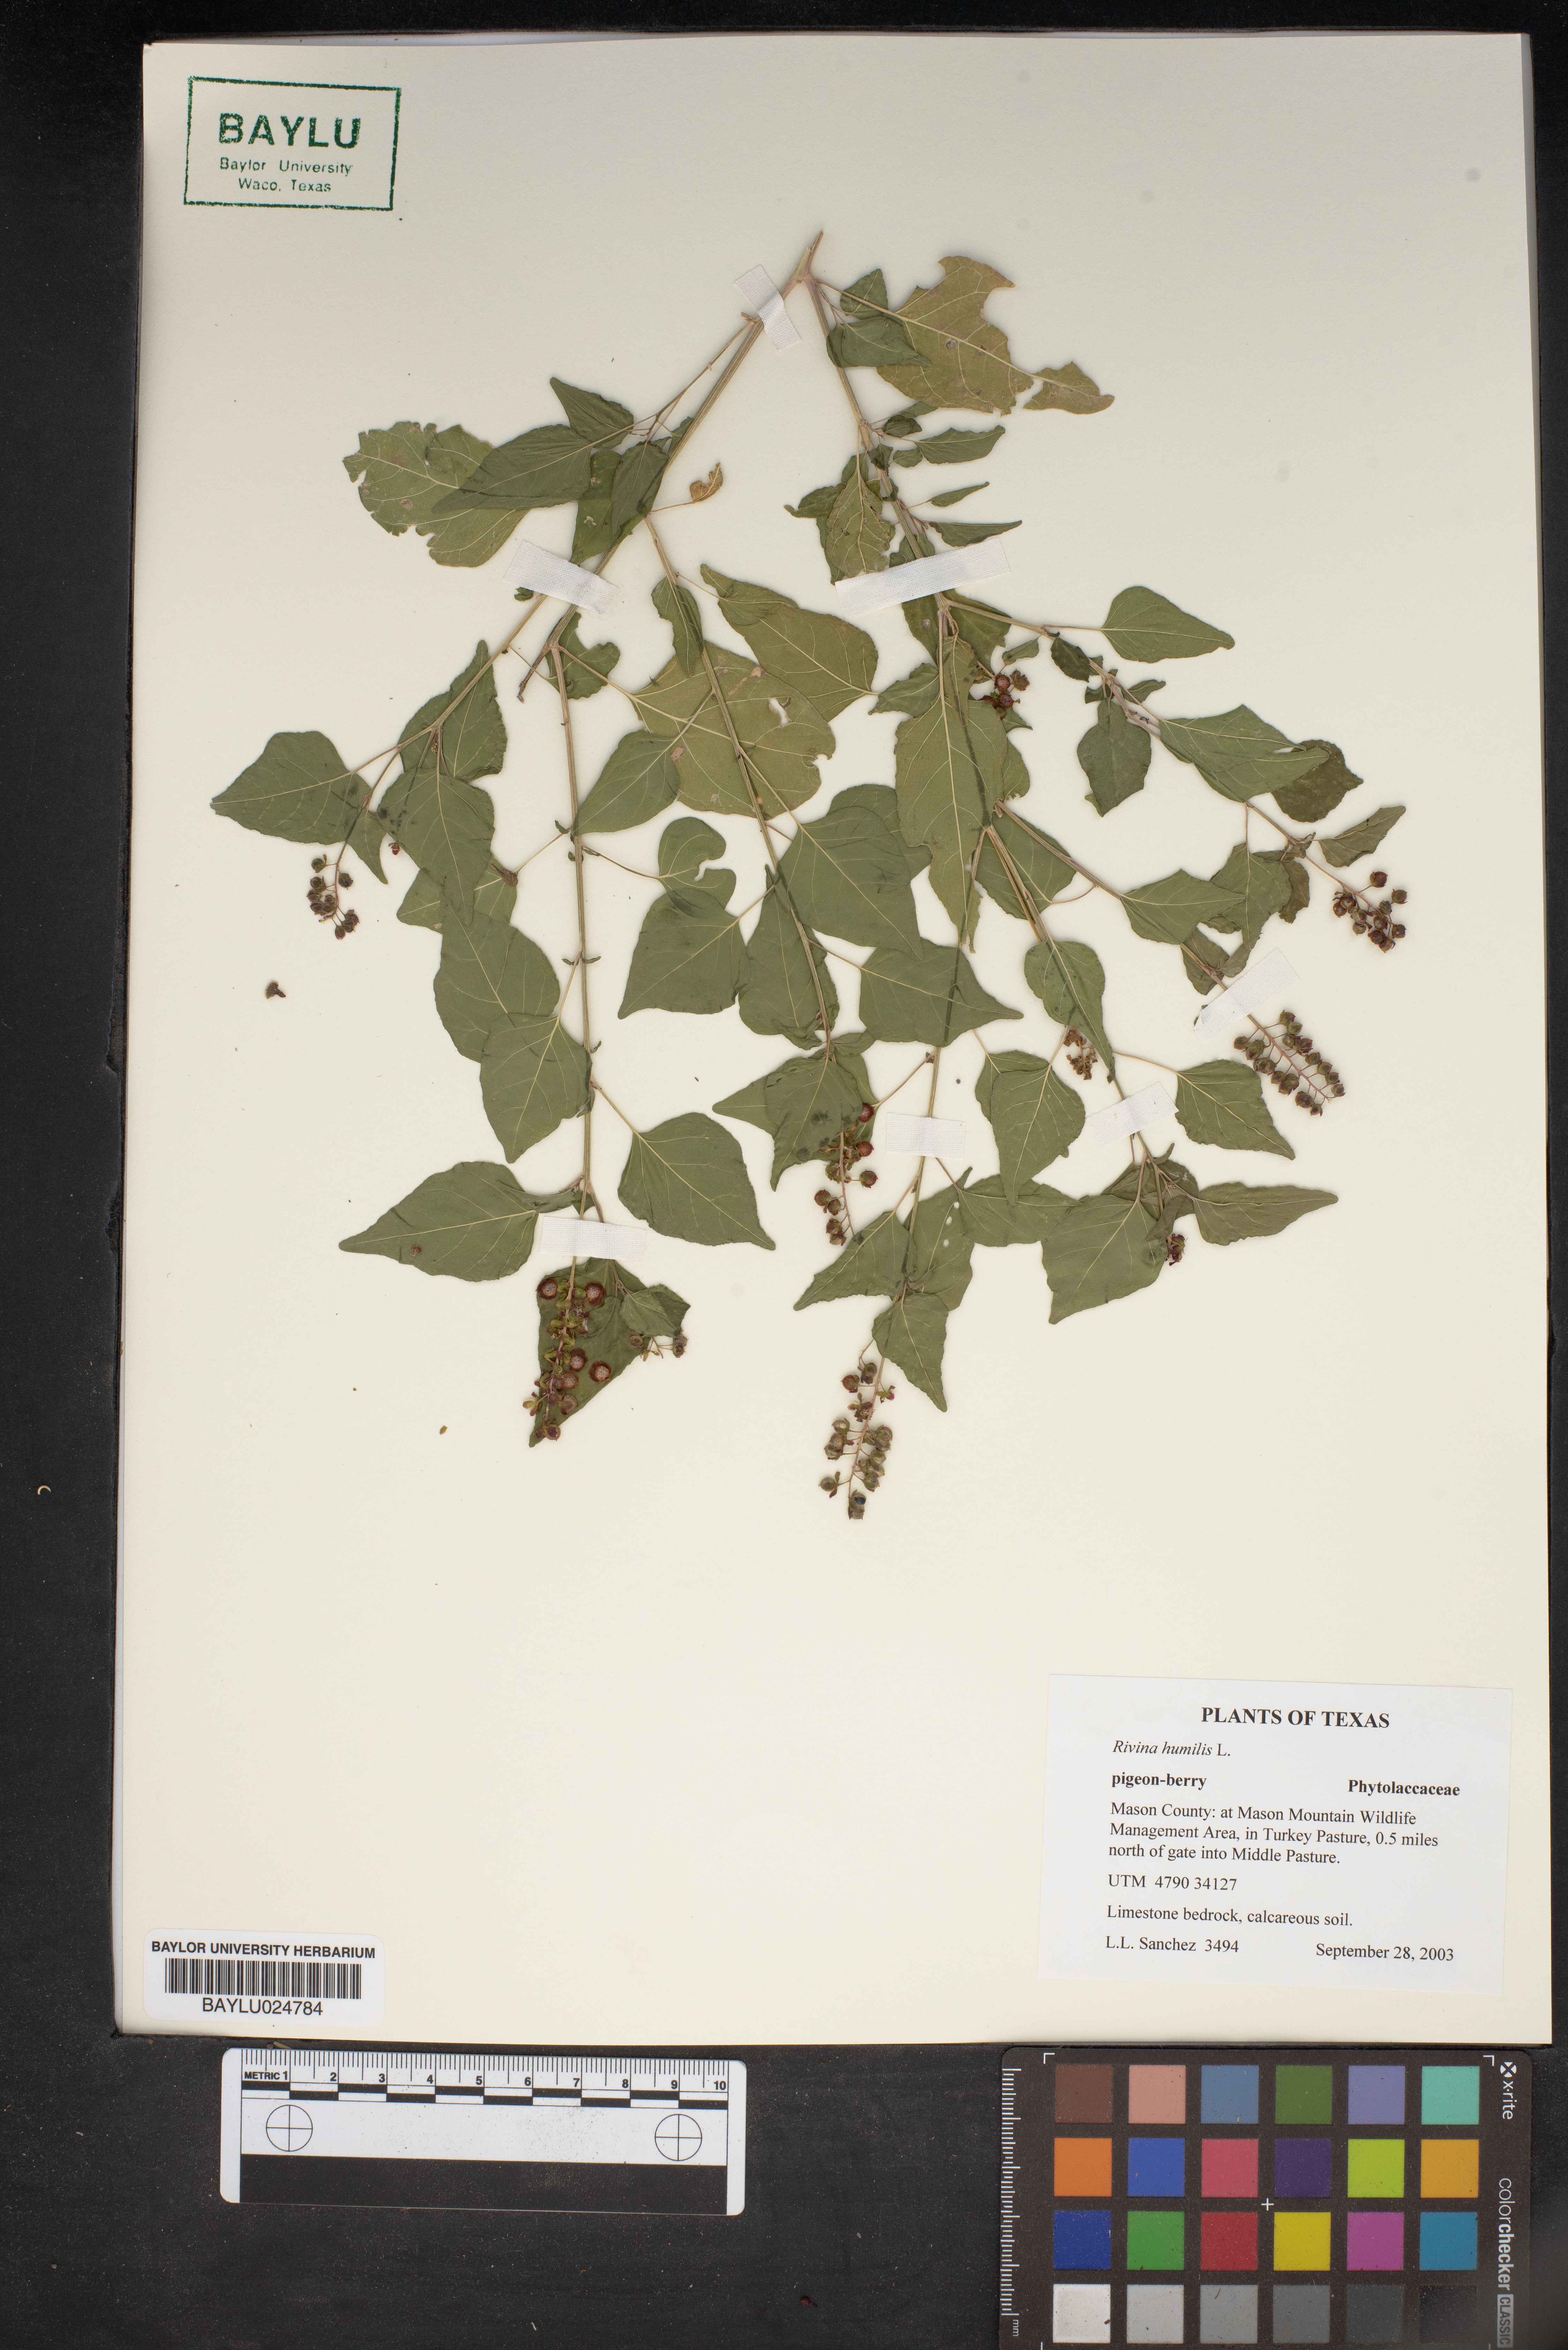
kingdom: Plantae
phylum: Tracheophyta
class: Magnoliopsida
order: Caryophyllales
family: Phytolaccaceae
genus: Rivina
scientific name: Rivina humilis
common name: Rougeplant
